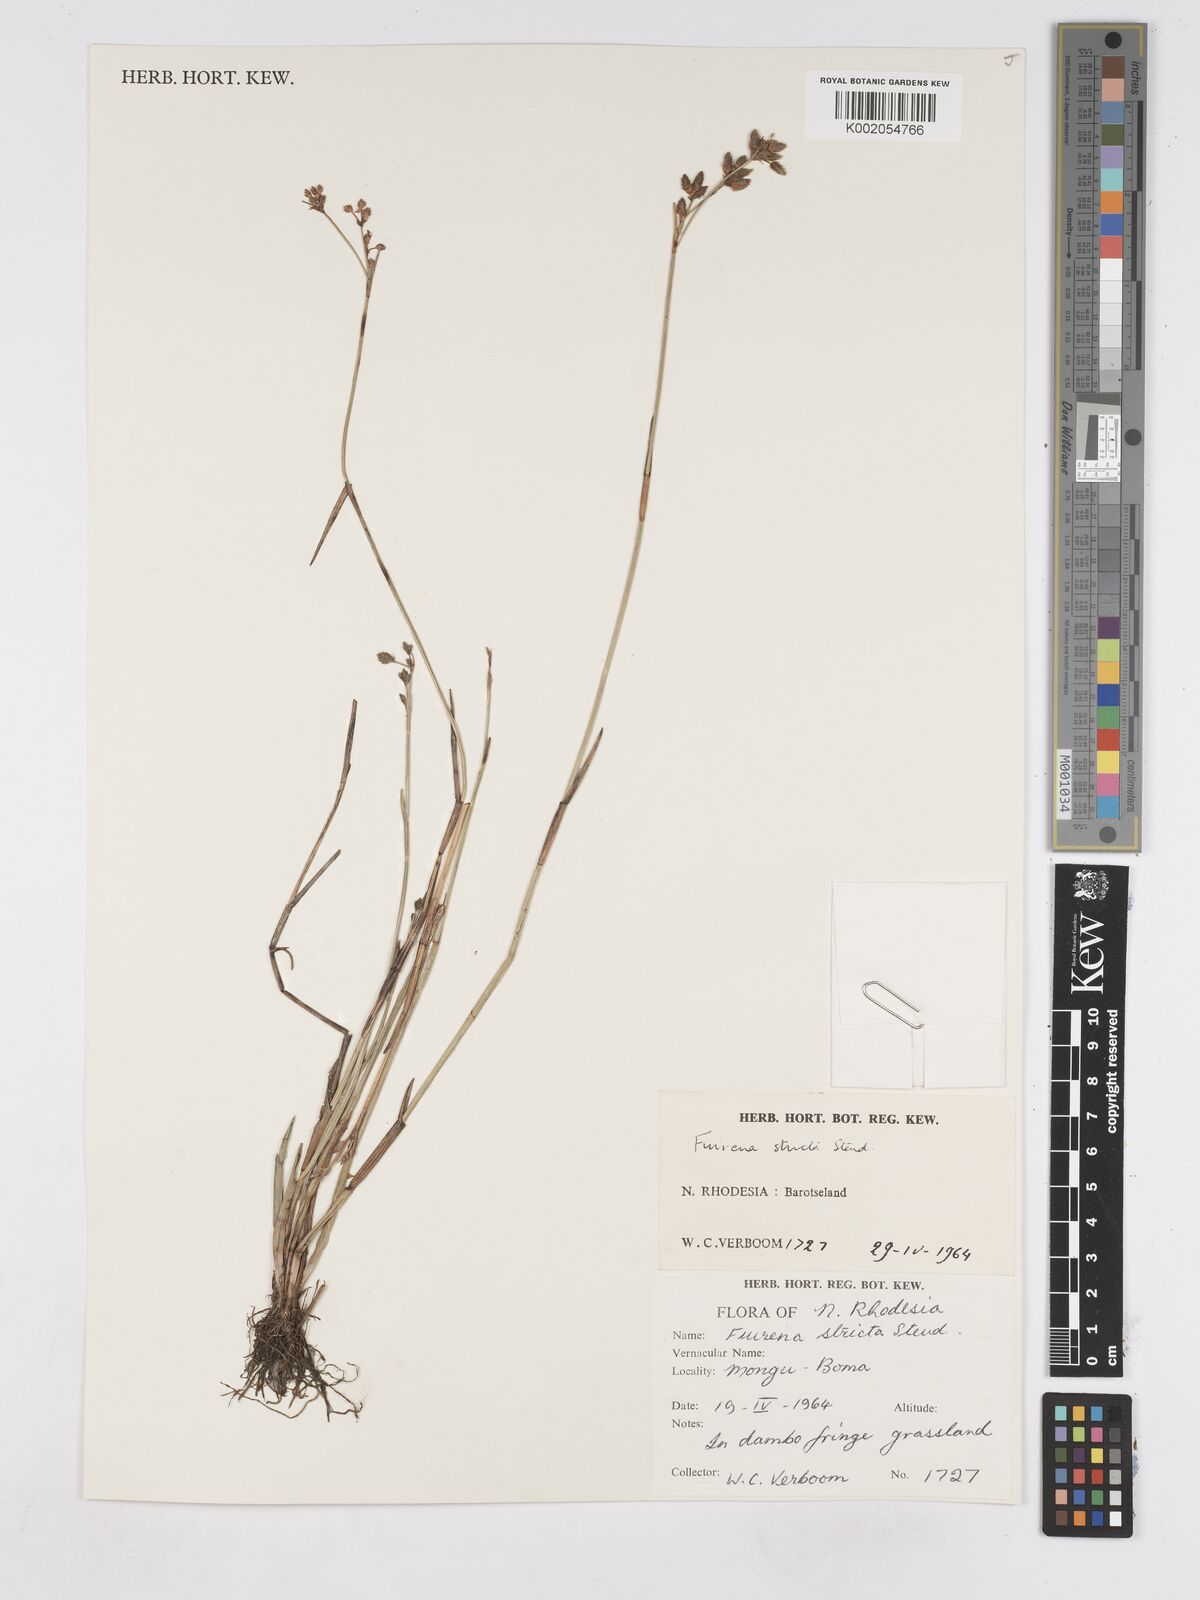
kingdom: Plantae
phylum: Tracheophyta
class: Liliopsida
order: Poales
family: Cyperaceae
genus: Fuirena
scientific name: Fuirena stricta
